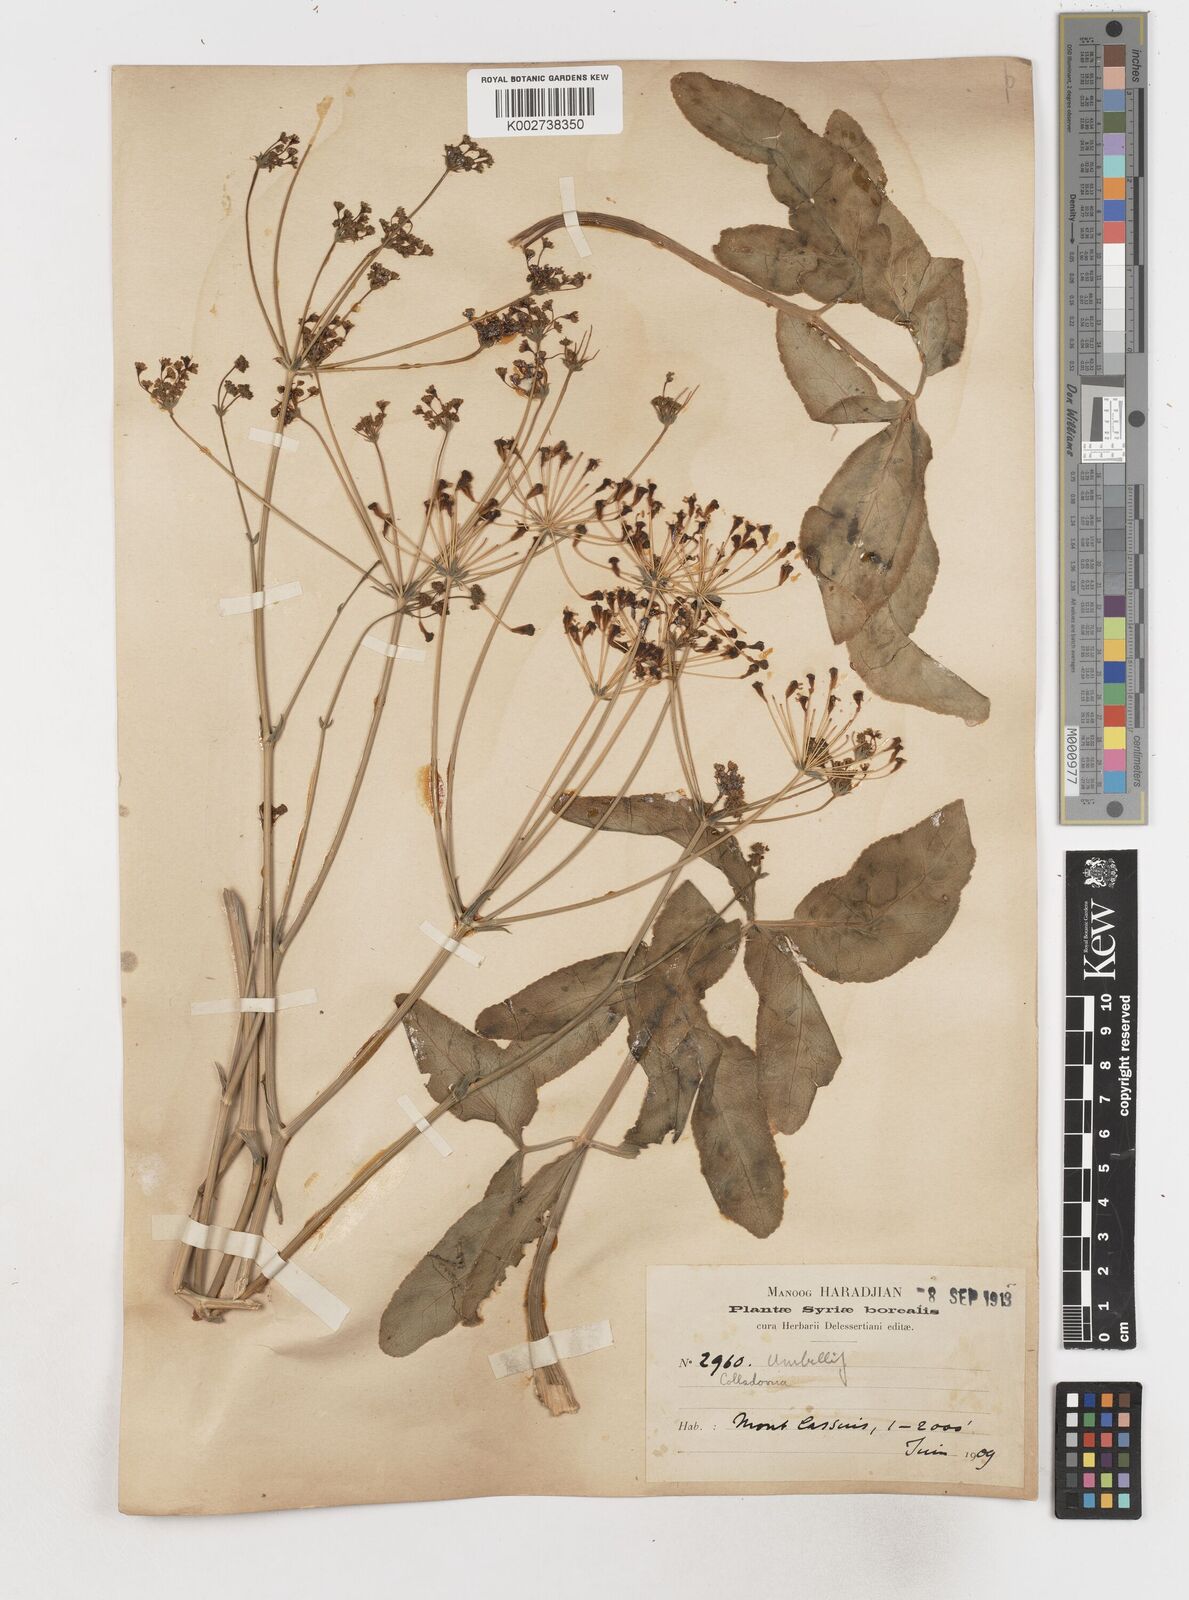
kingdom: Plantae
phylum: Tracheophyta
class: Magnoliopsida
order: Apiales
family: Apiaceae
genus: Heptaptera
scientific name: Heptaptera anisoptera
